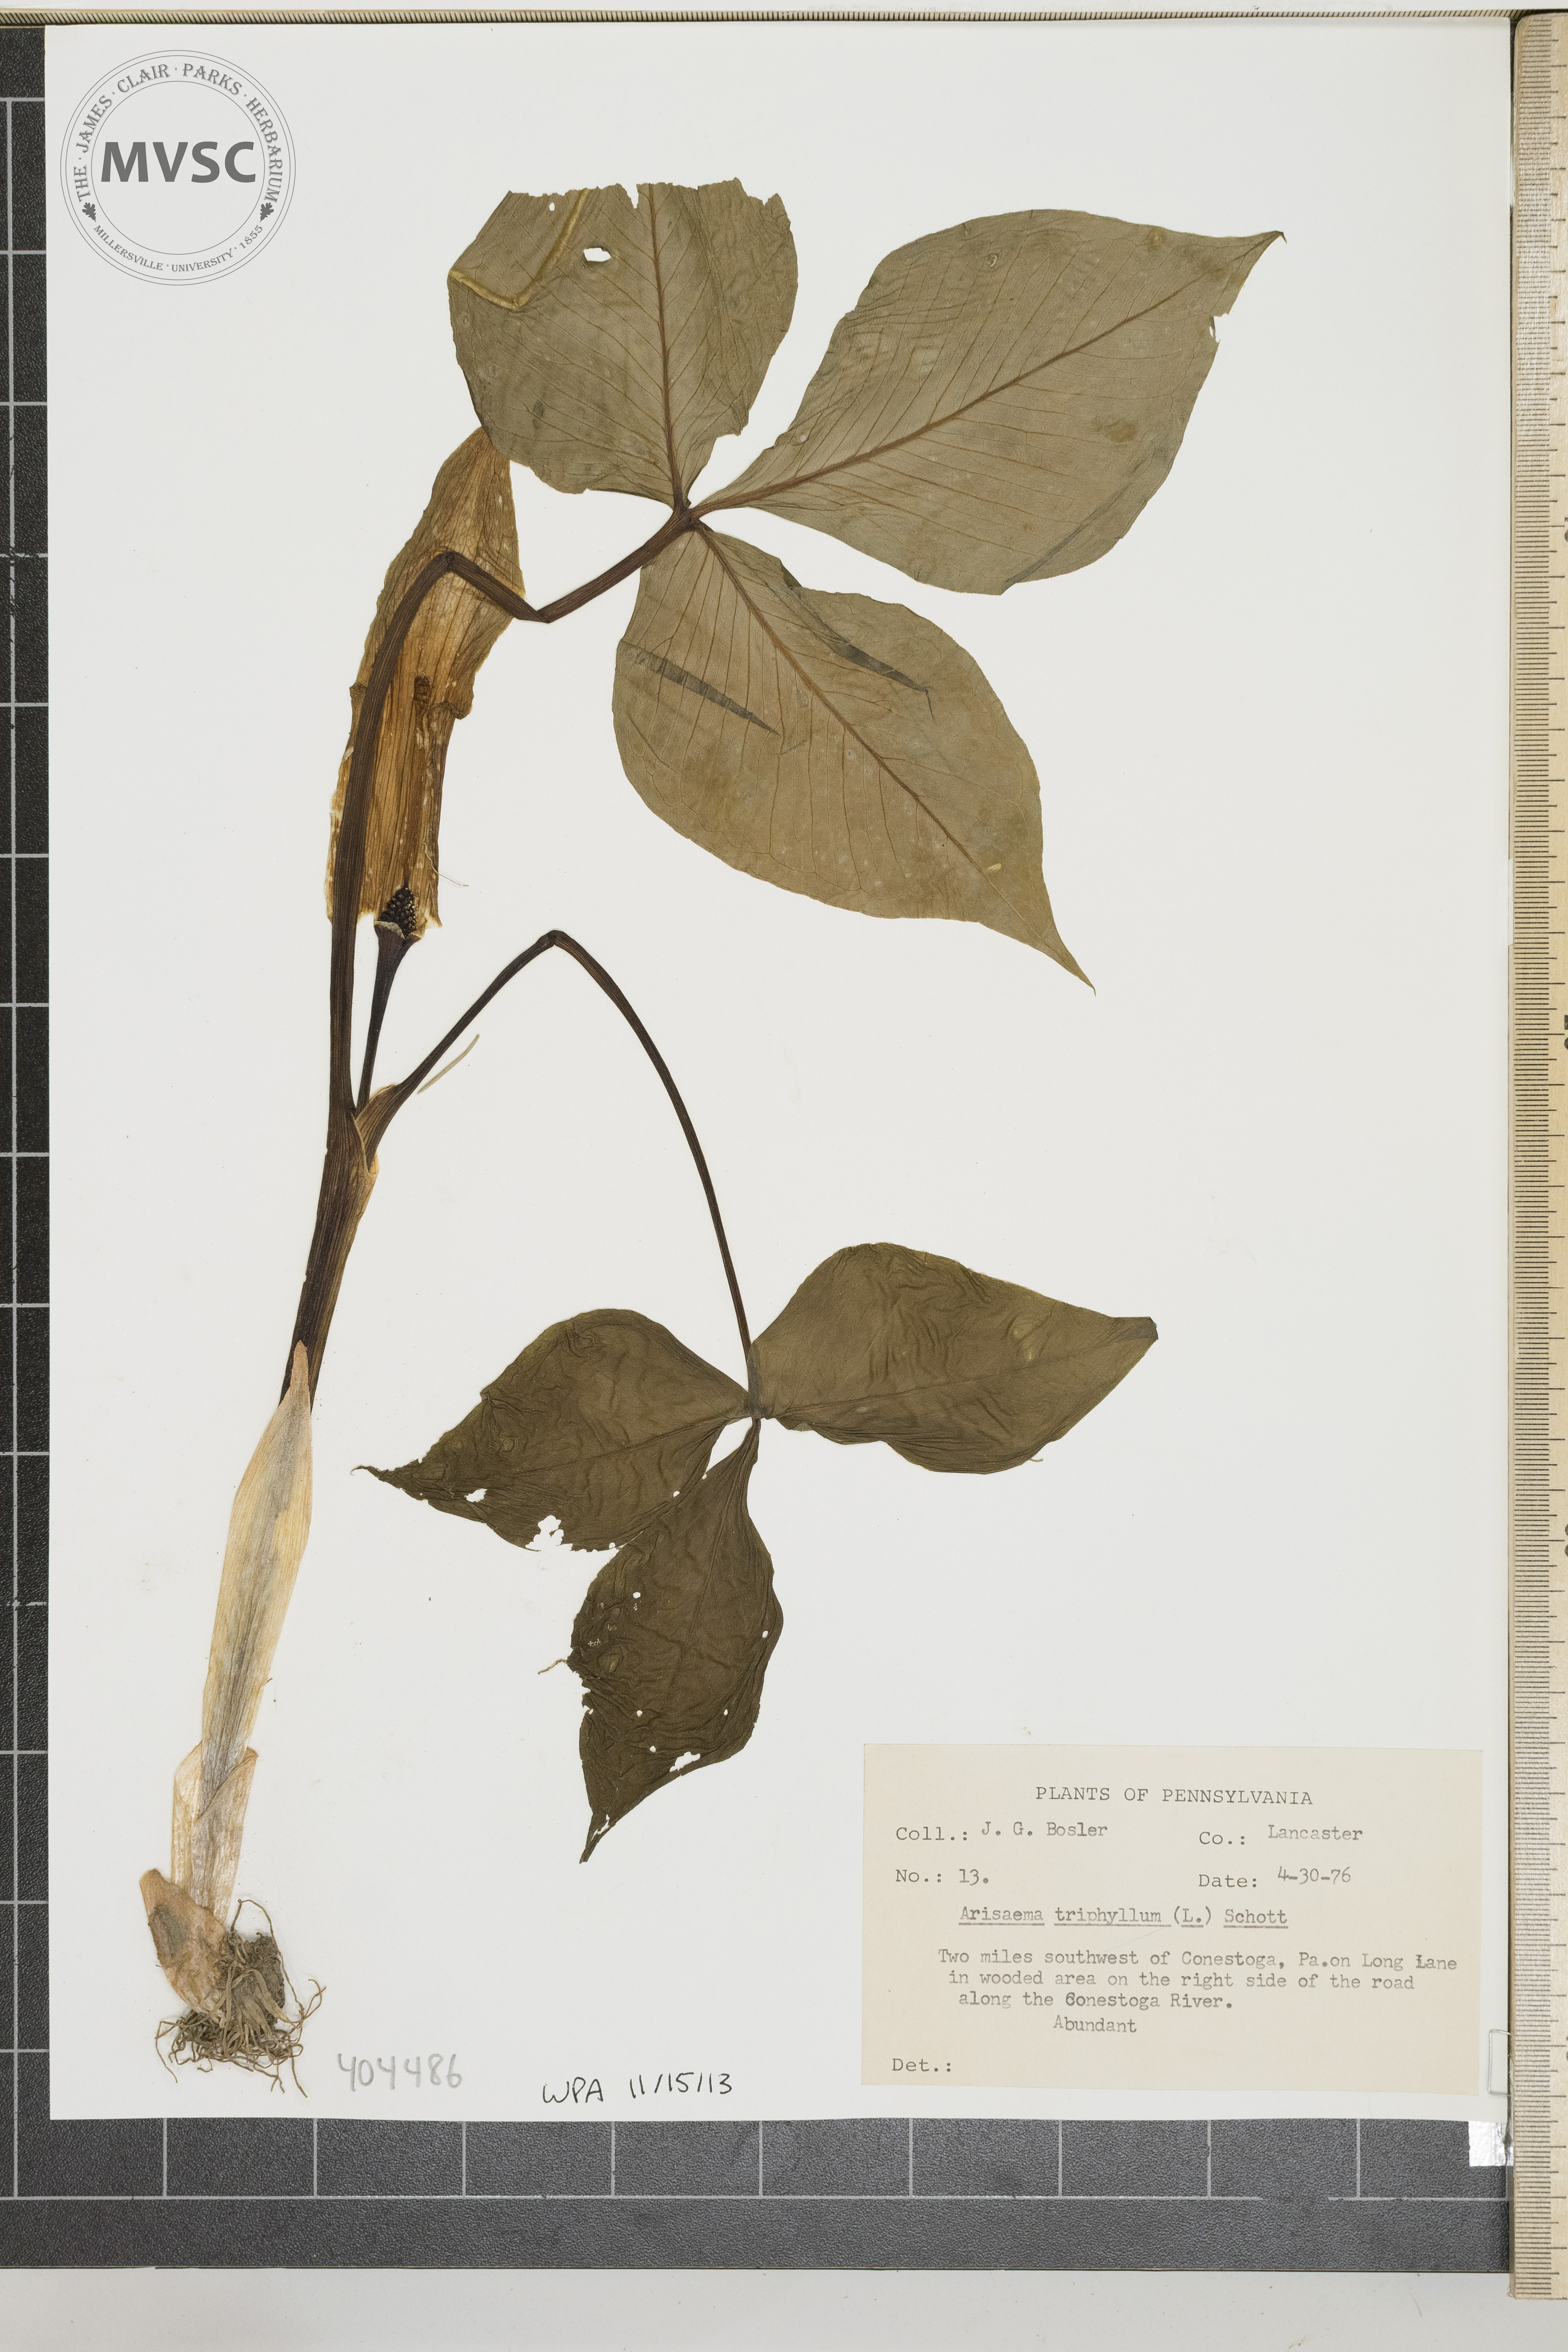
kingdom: Plantae
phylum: Tracheophyta
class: Liliopsida
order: Alismatales
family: Araceae
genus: Arisaema
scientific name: Arisaema triphyllum
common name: Jack-in-the-pulpit
